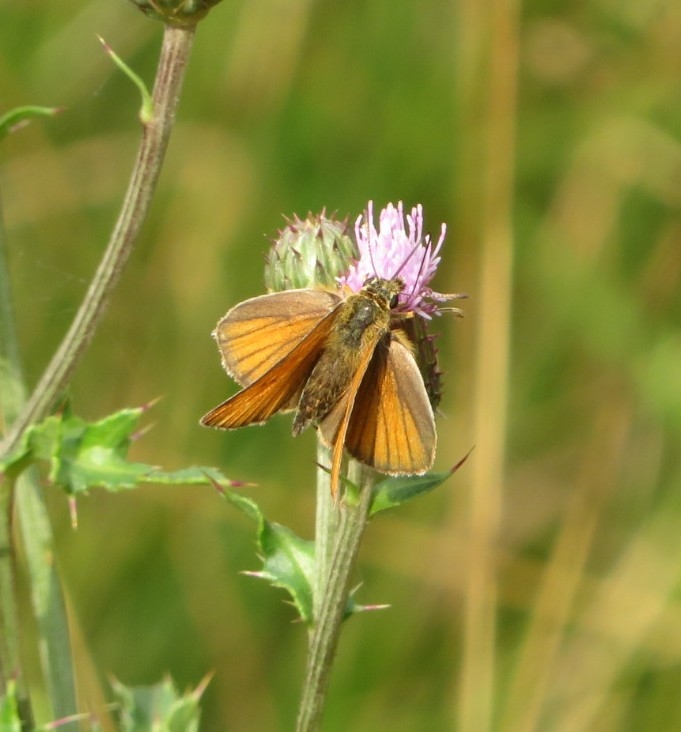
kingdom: Animalia
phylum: Arthropoda
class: Insecta
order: Lepidoptera
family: Hesperiidae
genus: Thymelicus
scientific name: Thymelicus lineola
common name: Stregbredpande
